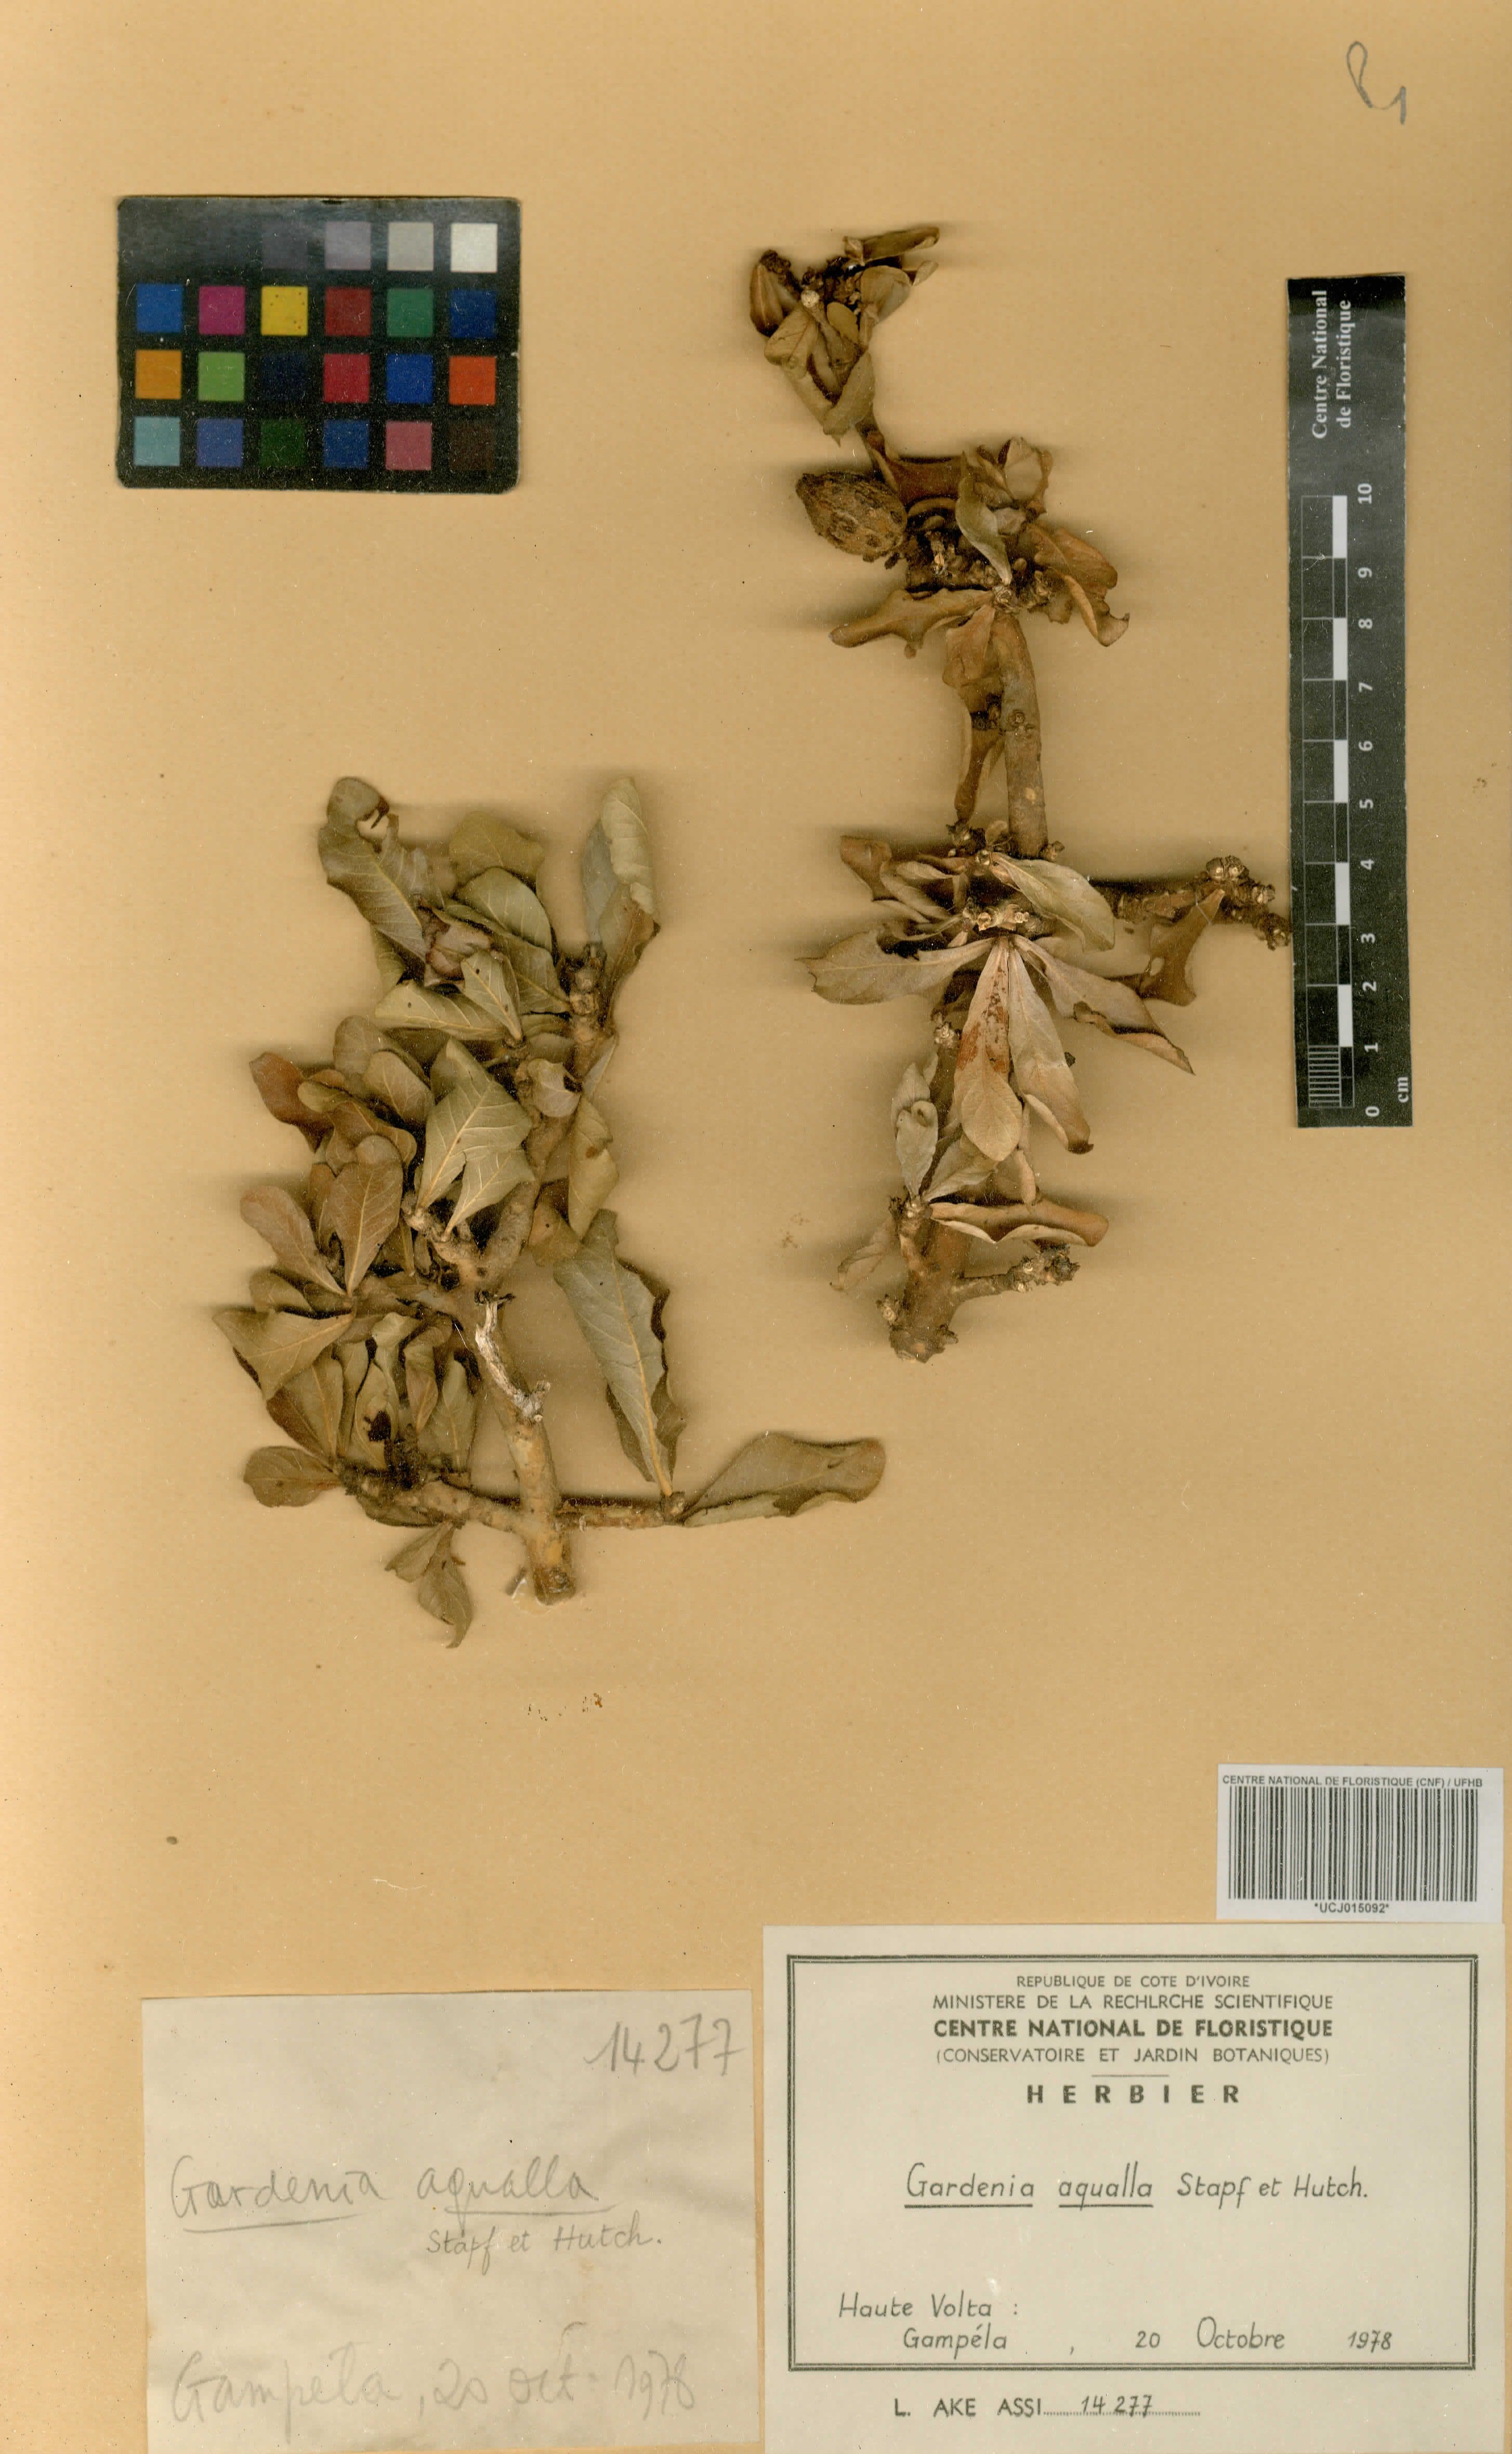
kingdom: Plantae
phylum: Tracheophyta
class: Magnoliopsida
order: Gentianales
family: Rubiaceae
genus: Gardenia
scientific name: Gardenia aqualla
